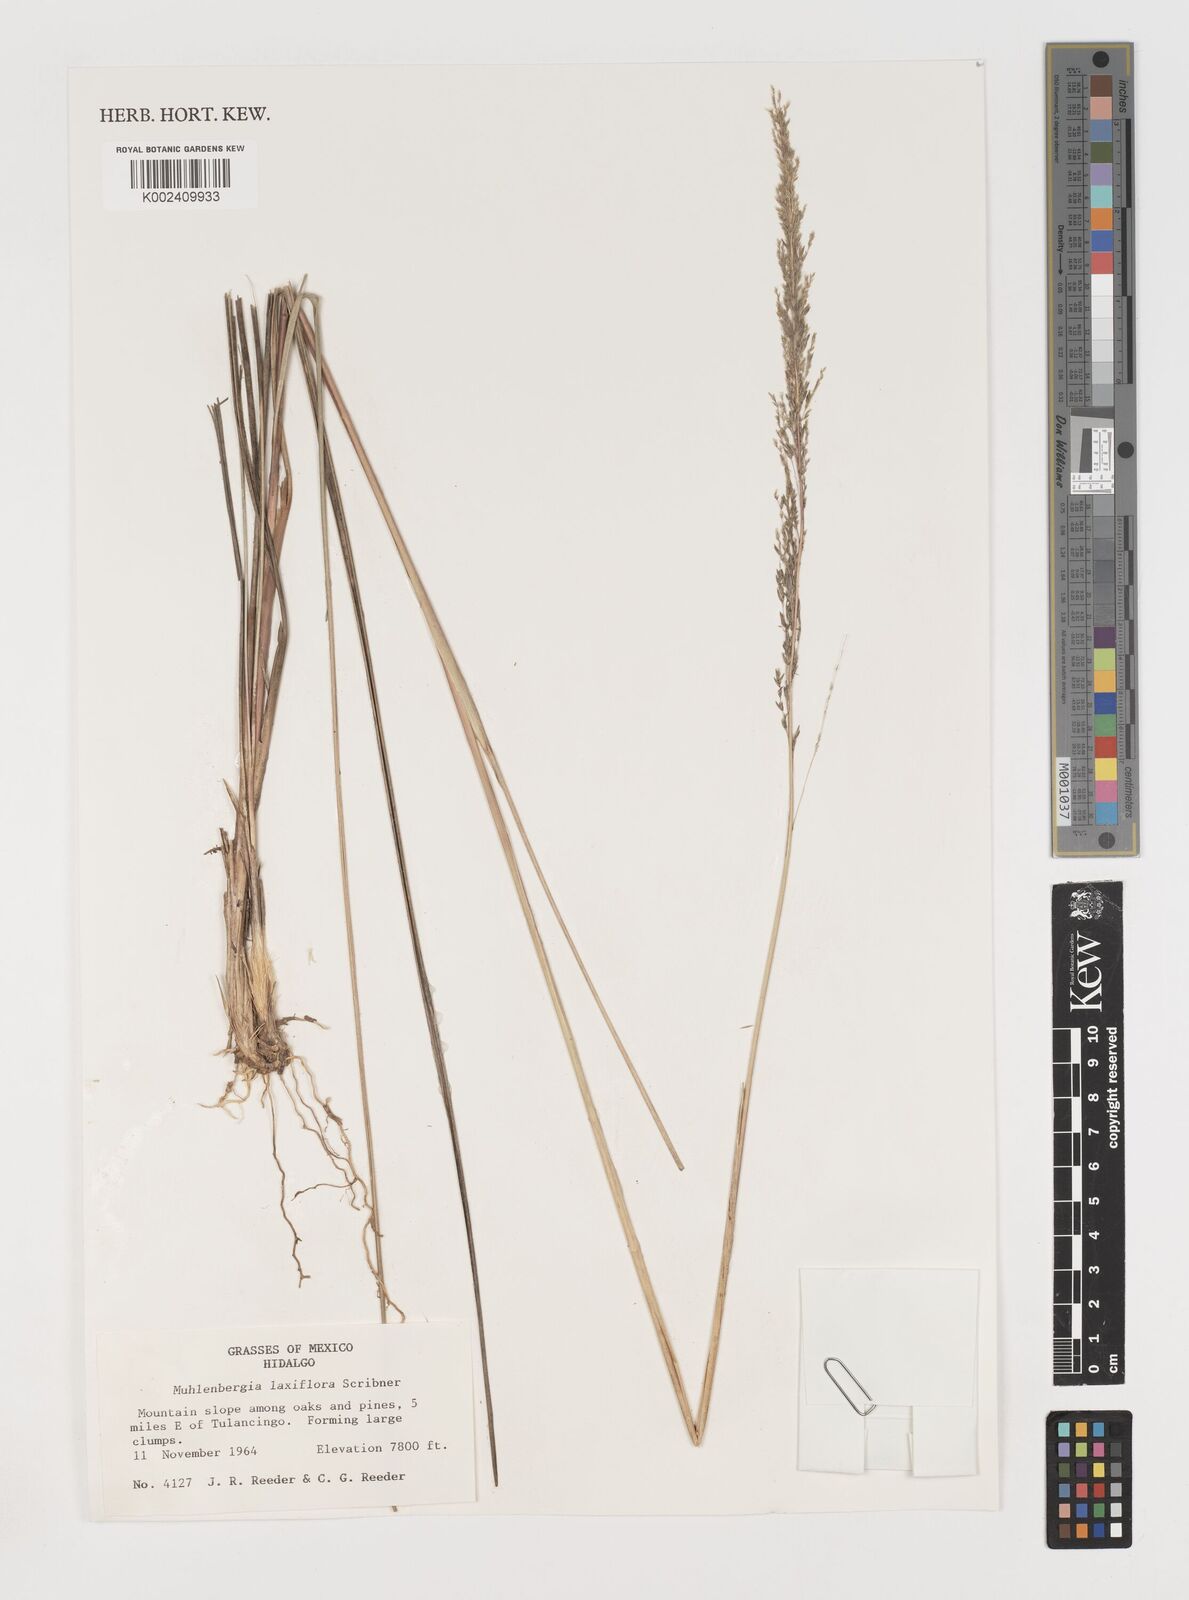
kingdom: Plantae
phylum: Tracheophyta
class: Liliopsida
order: Poales
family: Poaceae
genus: Muhlenbergia
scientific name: Muhlenbergia mucronata
